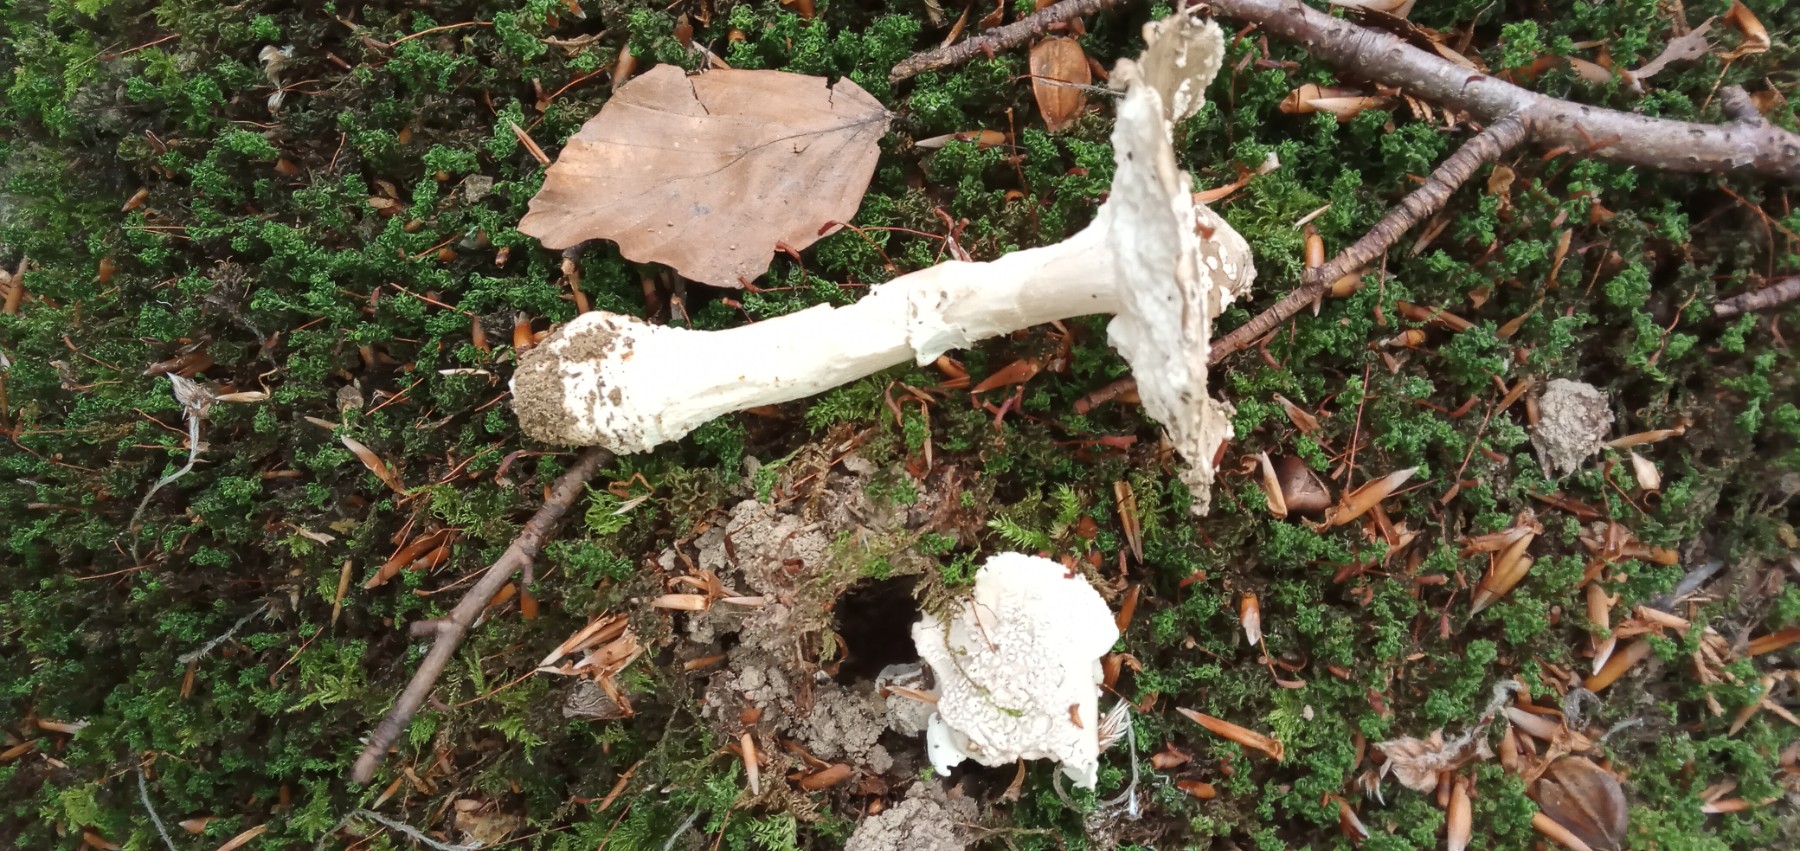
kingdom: Fungi
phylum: Basidiomycota
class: Agaricomycetes
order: Agaricales
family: Amanitaceae
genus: Amanita
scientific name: Amanita
